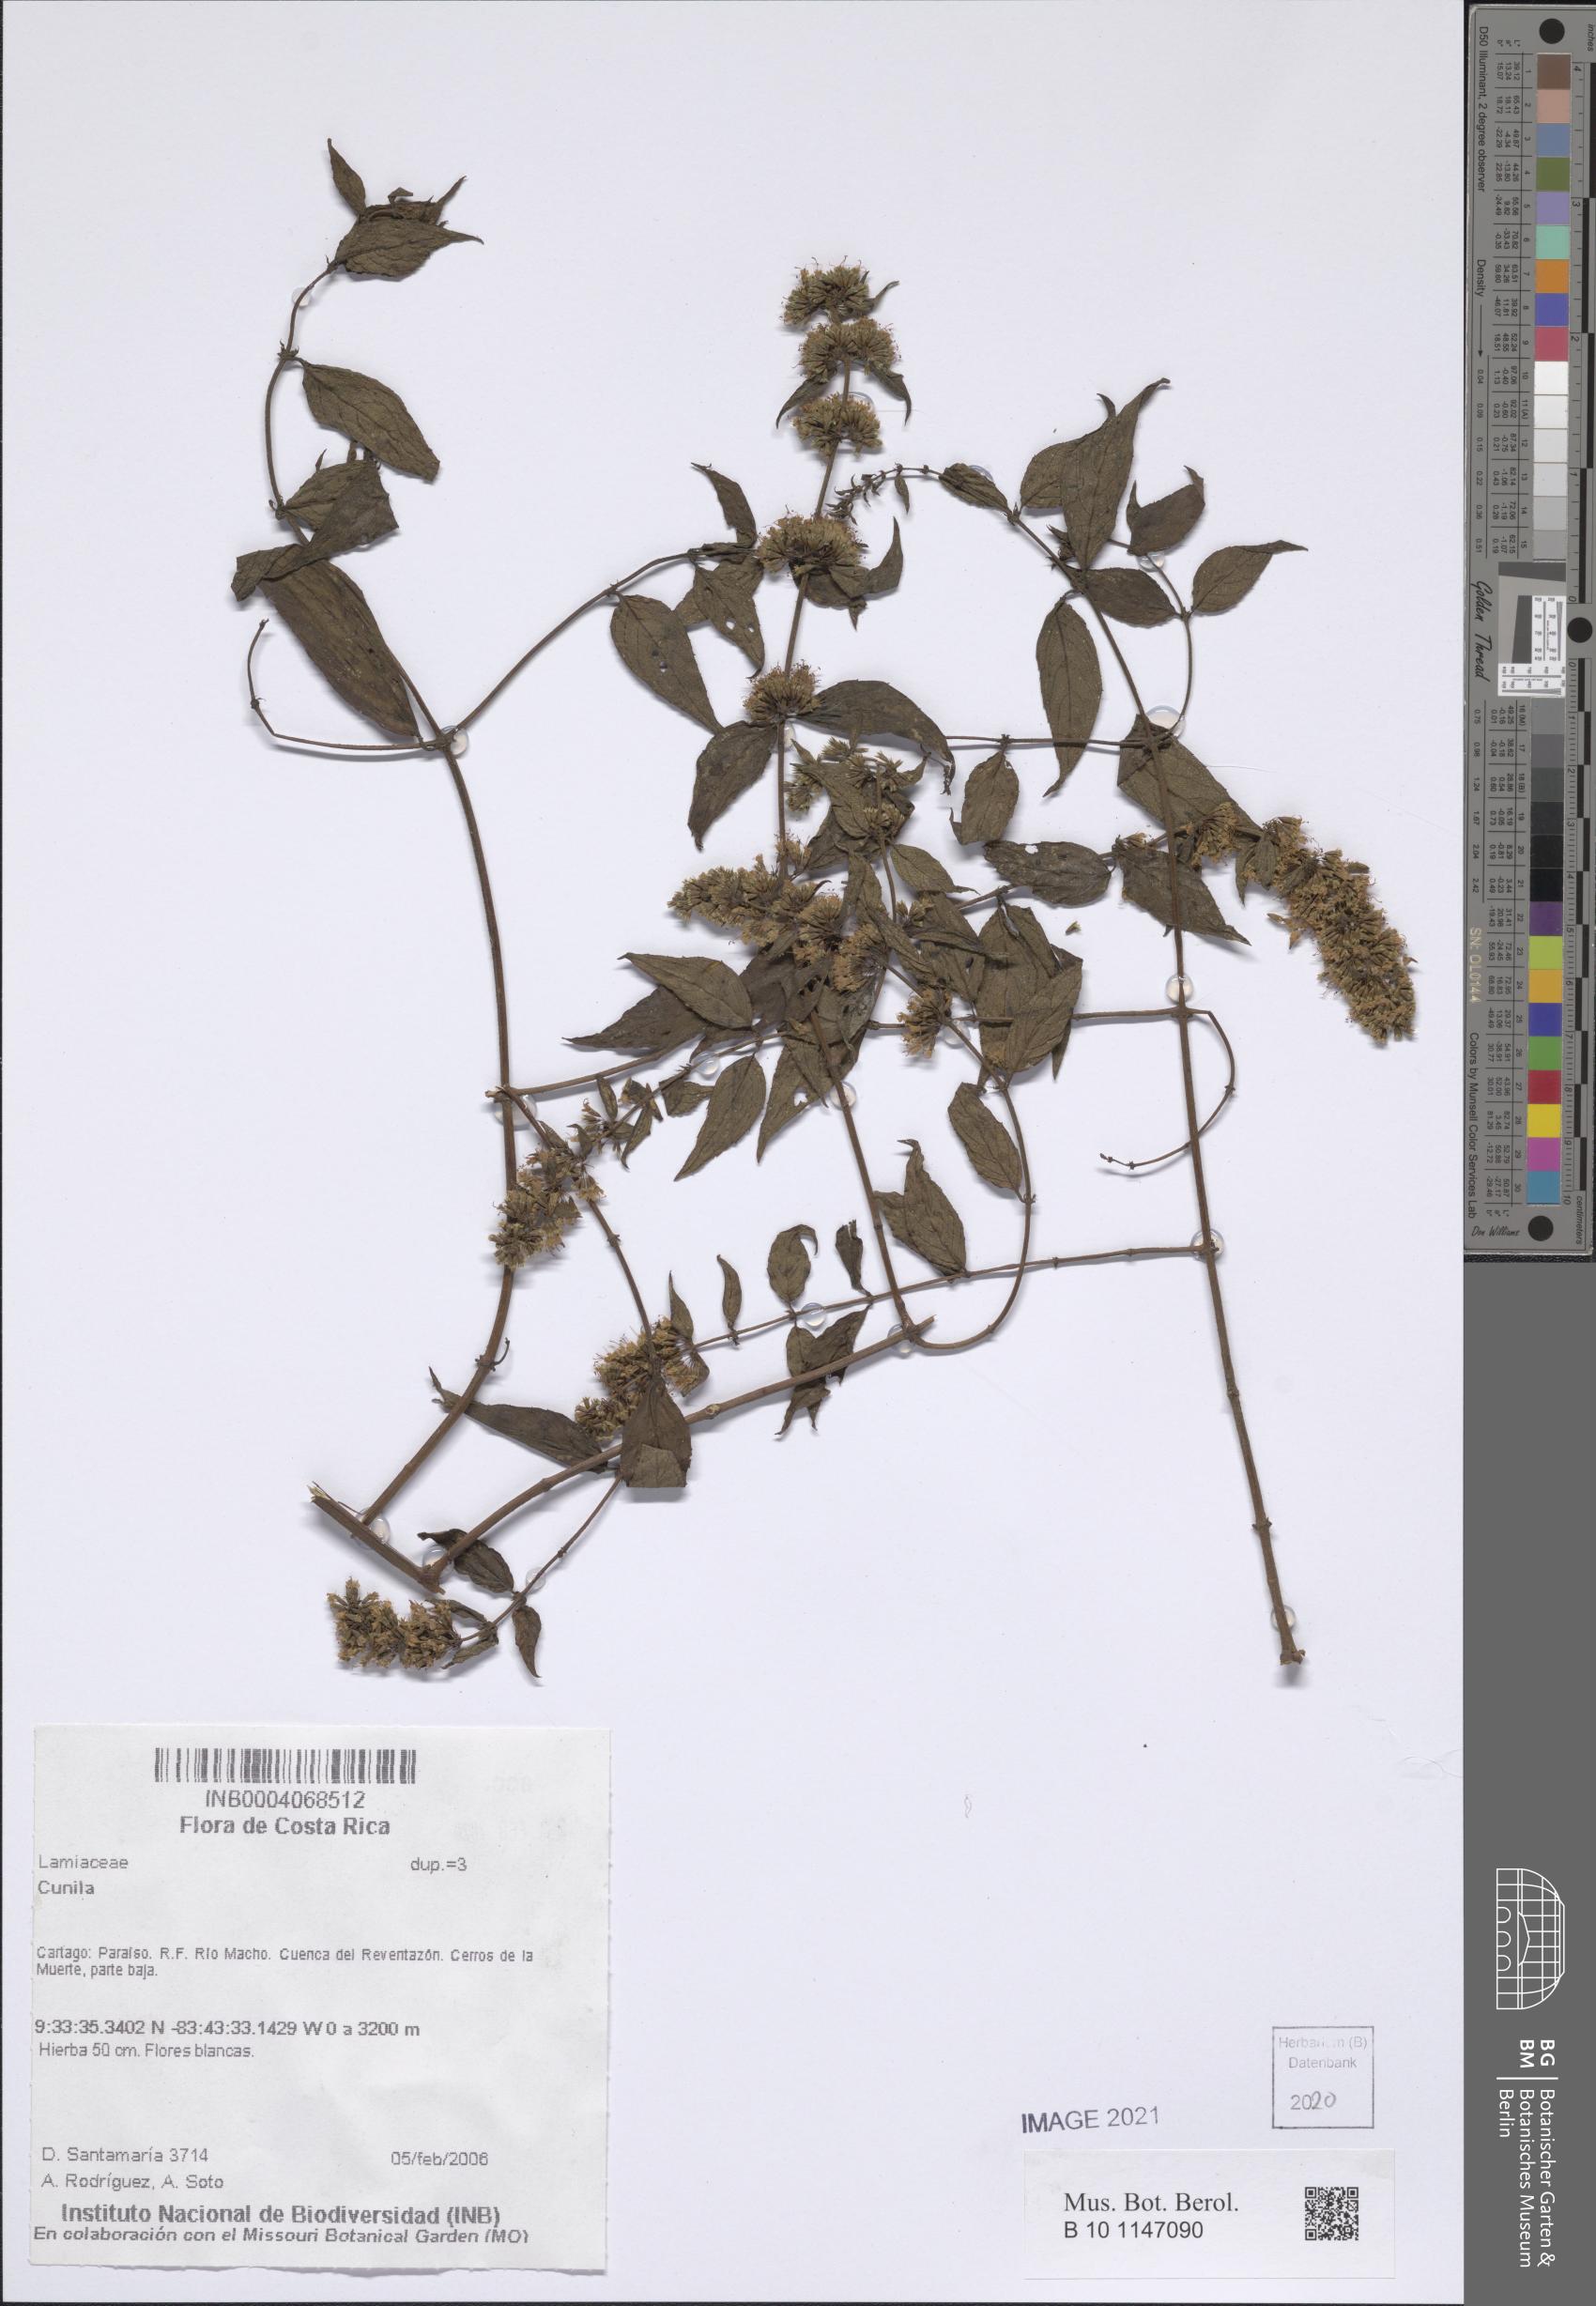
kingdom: Plantae
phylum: Tracheophyta
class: Magnoliopsida
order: Lamiales
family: Lamiaceae
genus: Cunila
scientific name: Cunila
